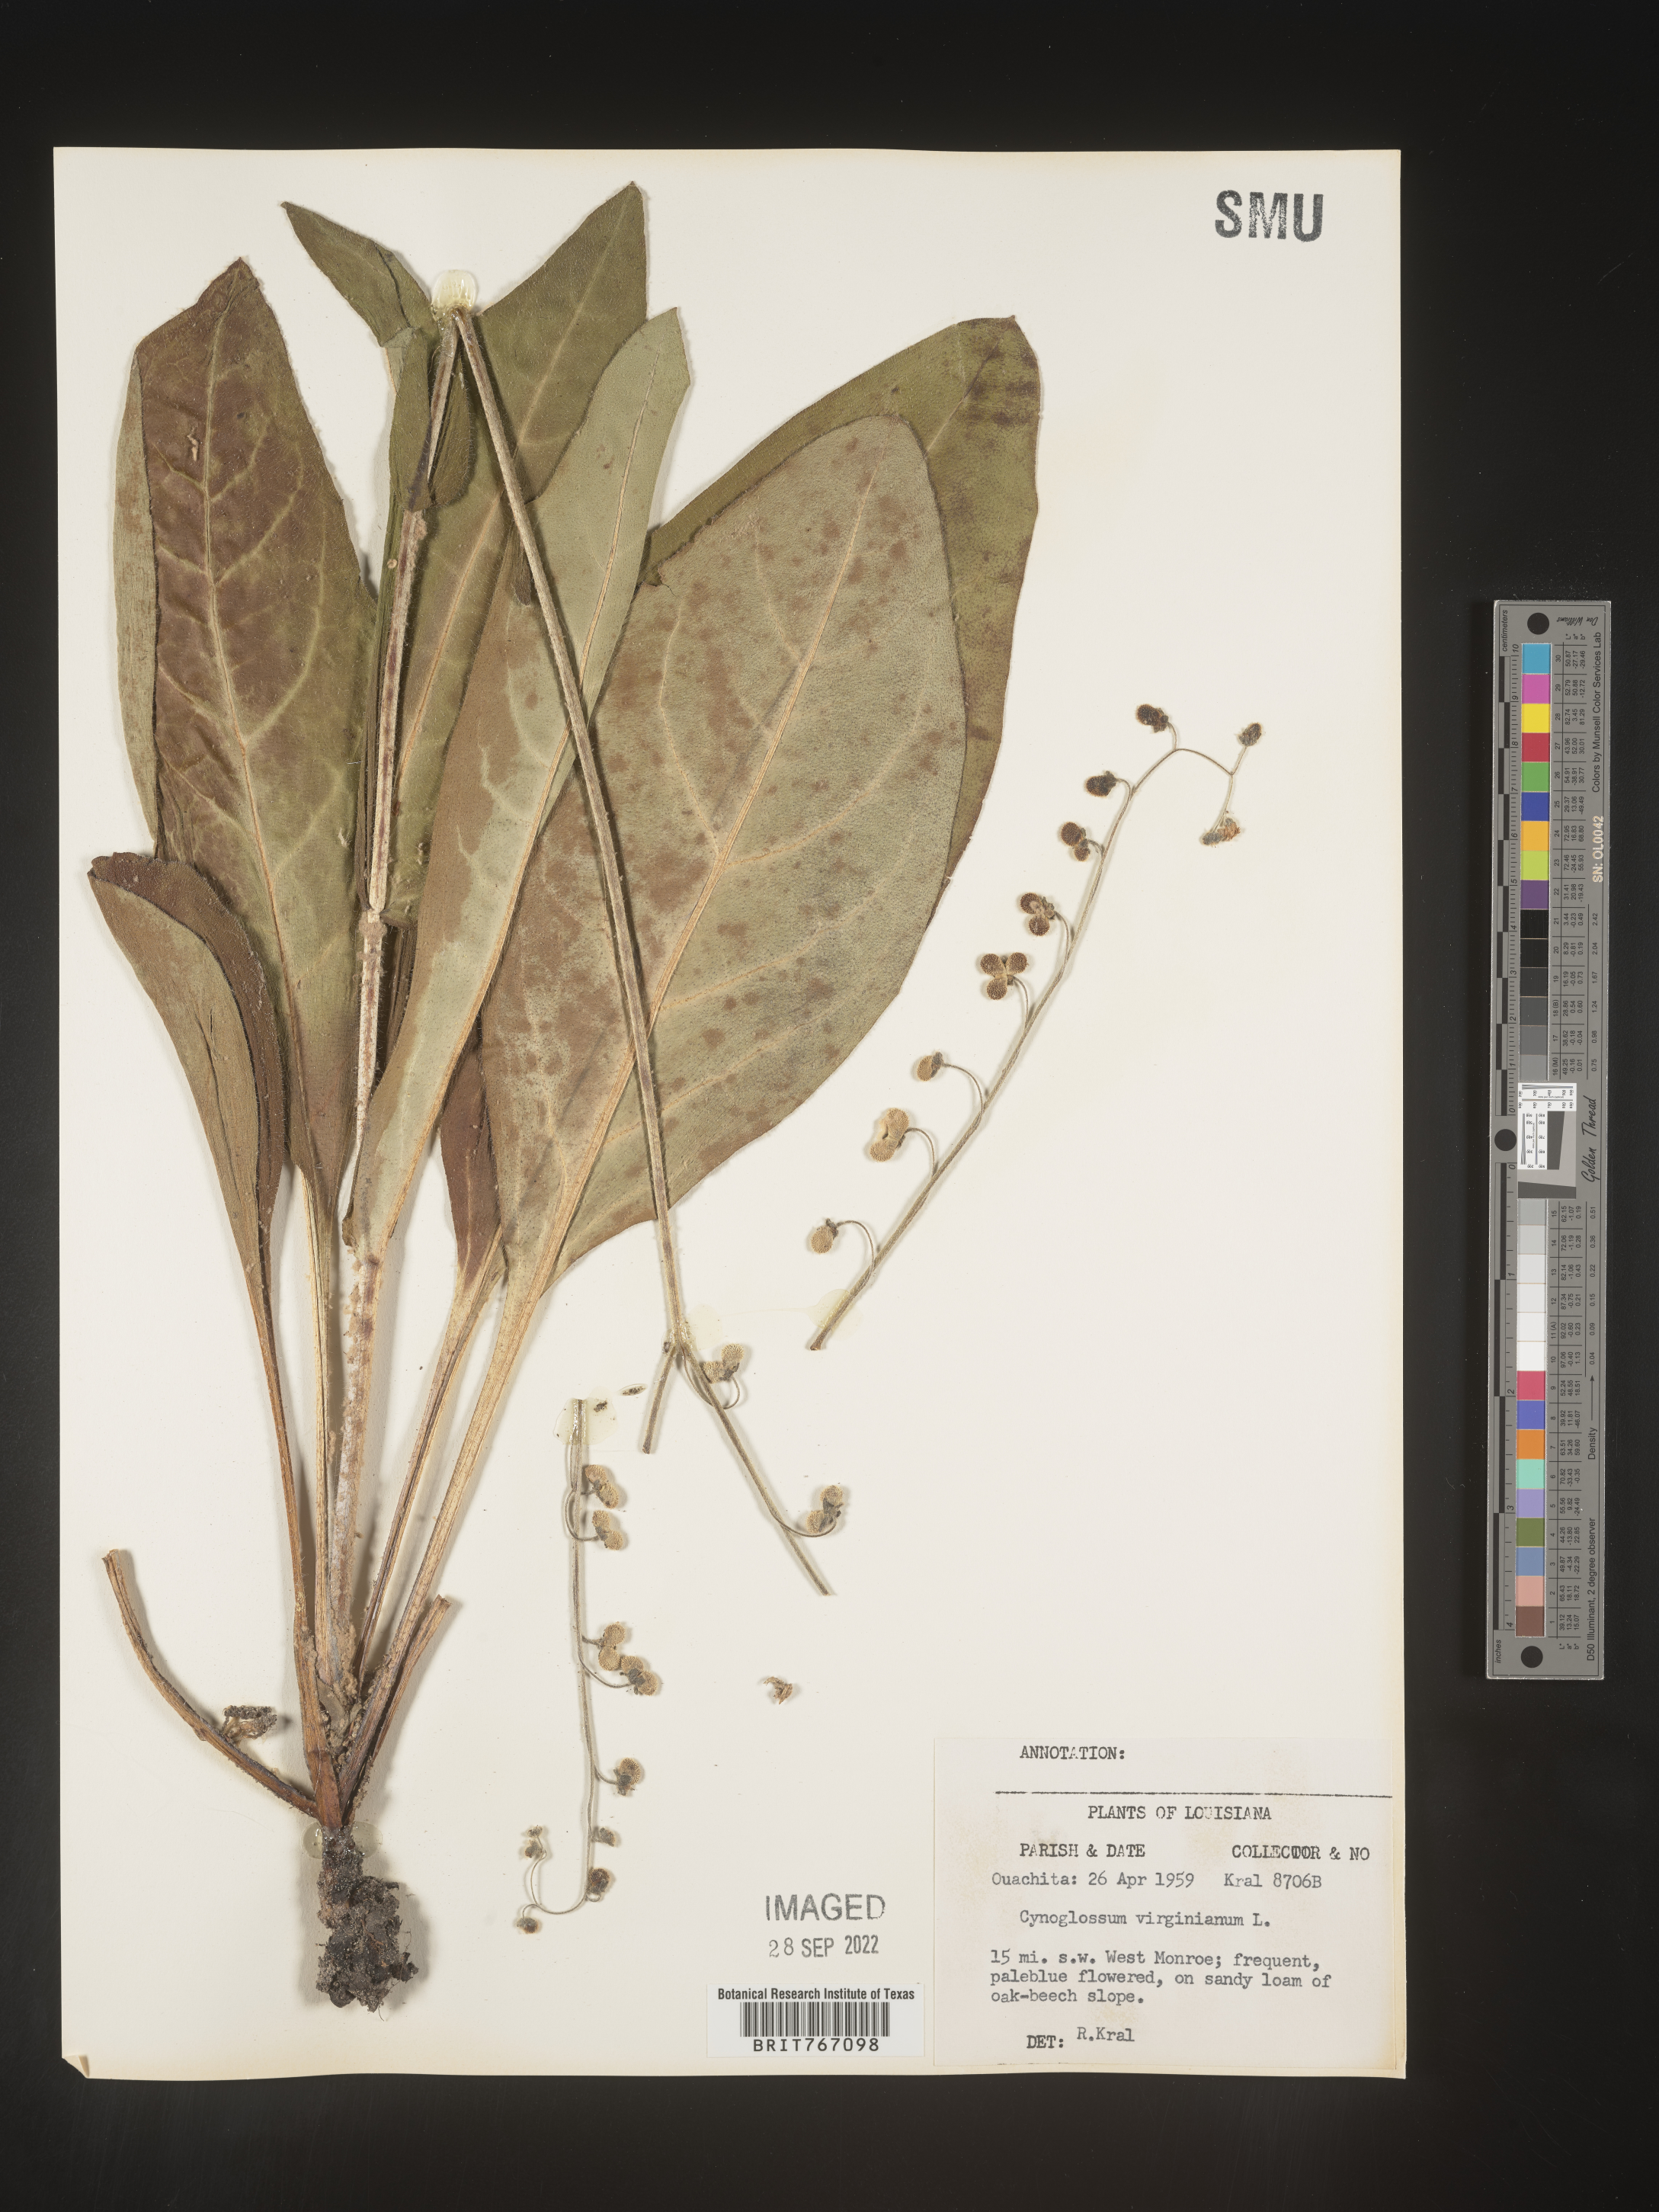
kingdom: Plantae
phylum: Tracheophyta
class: Magnoliopsida
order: Boraginales
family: Boraginaceae
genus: Andersonglossum
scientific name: Andersonglossum virginianum
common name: Wild comfrey
